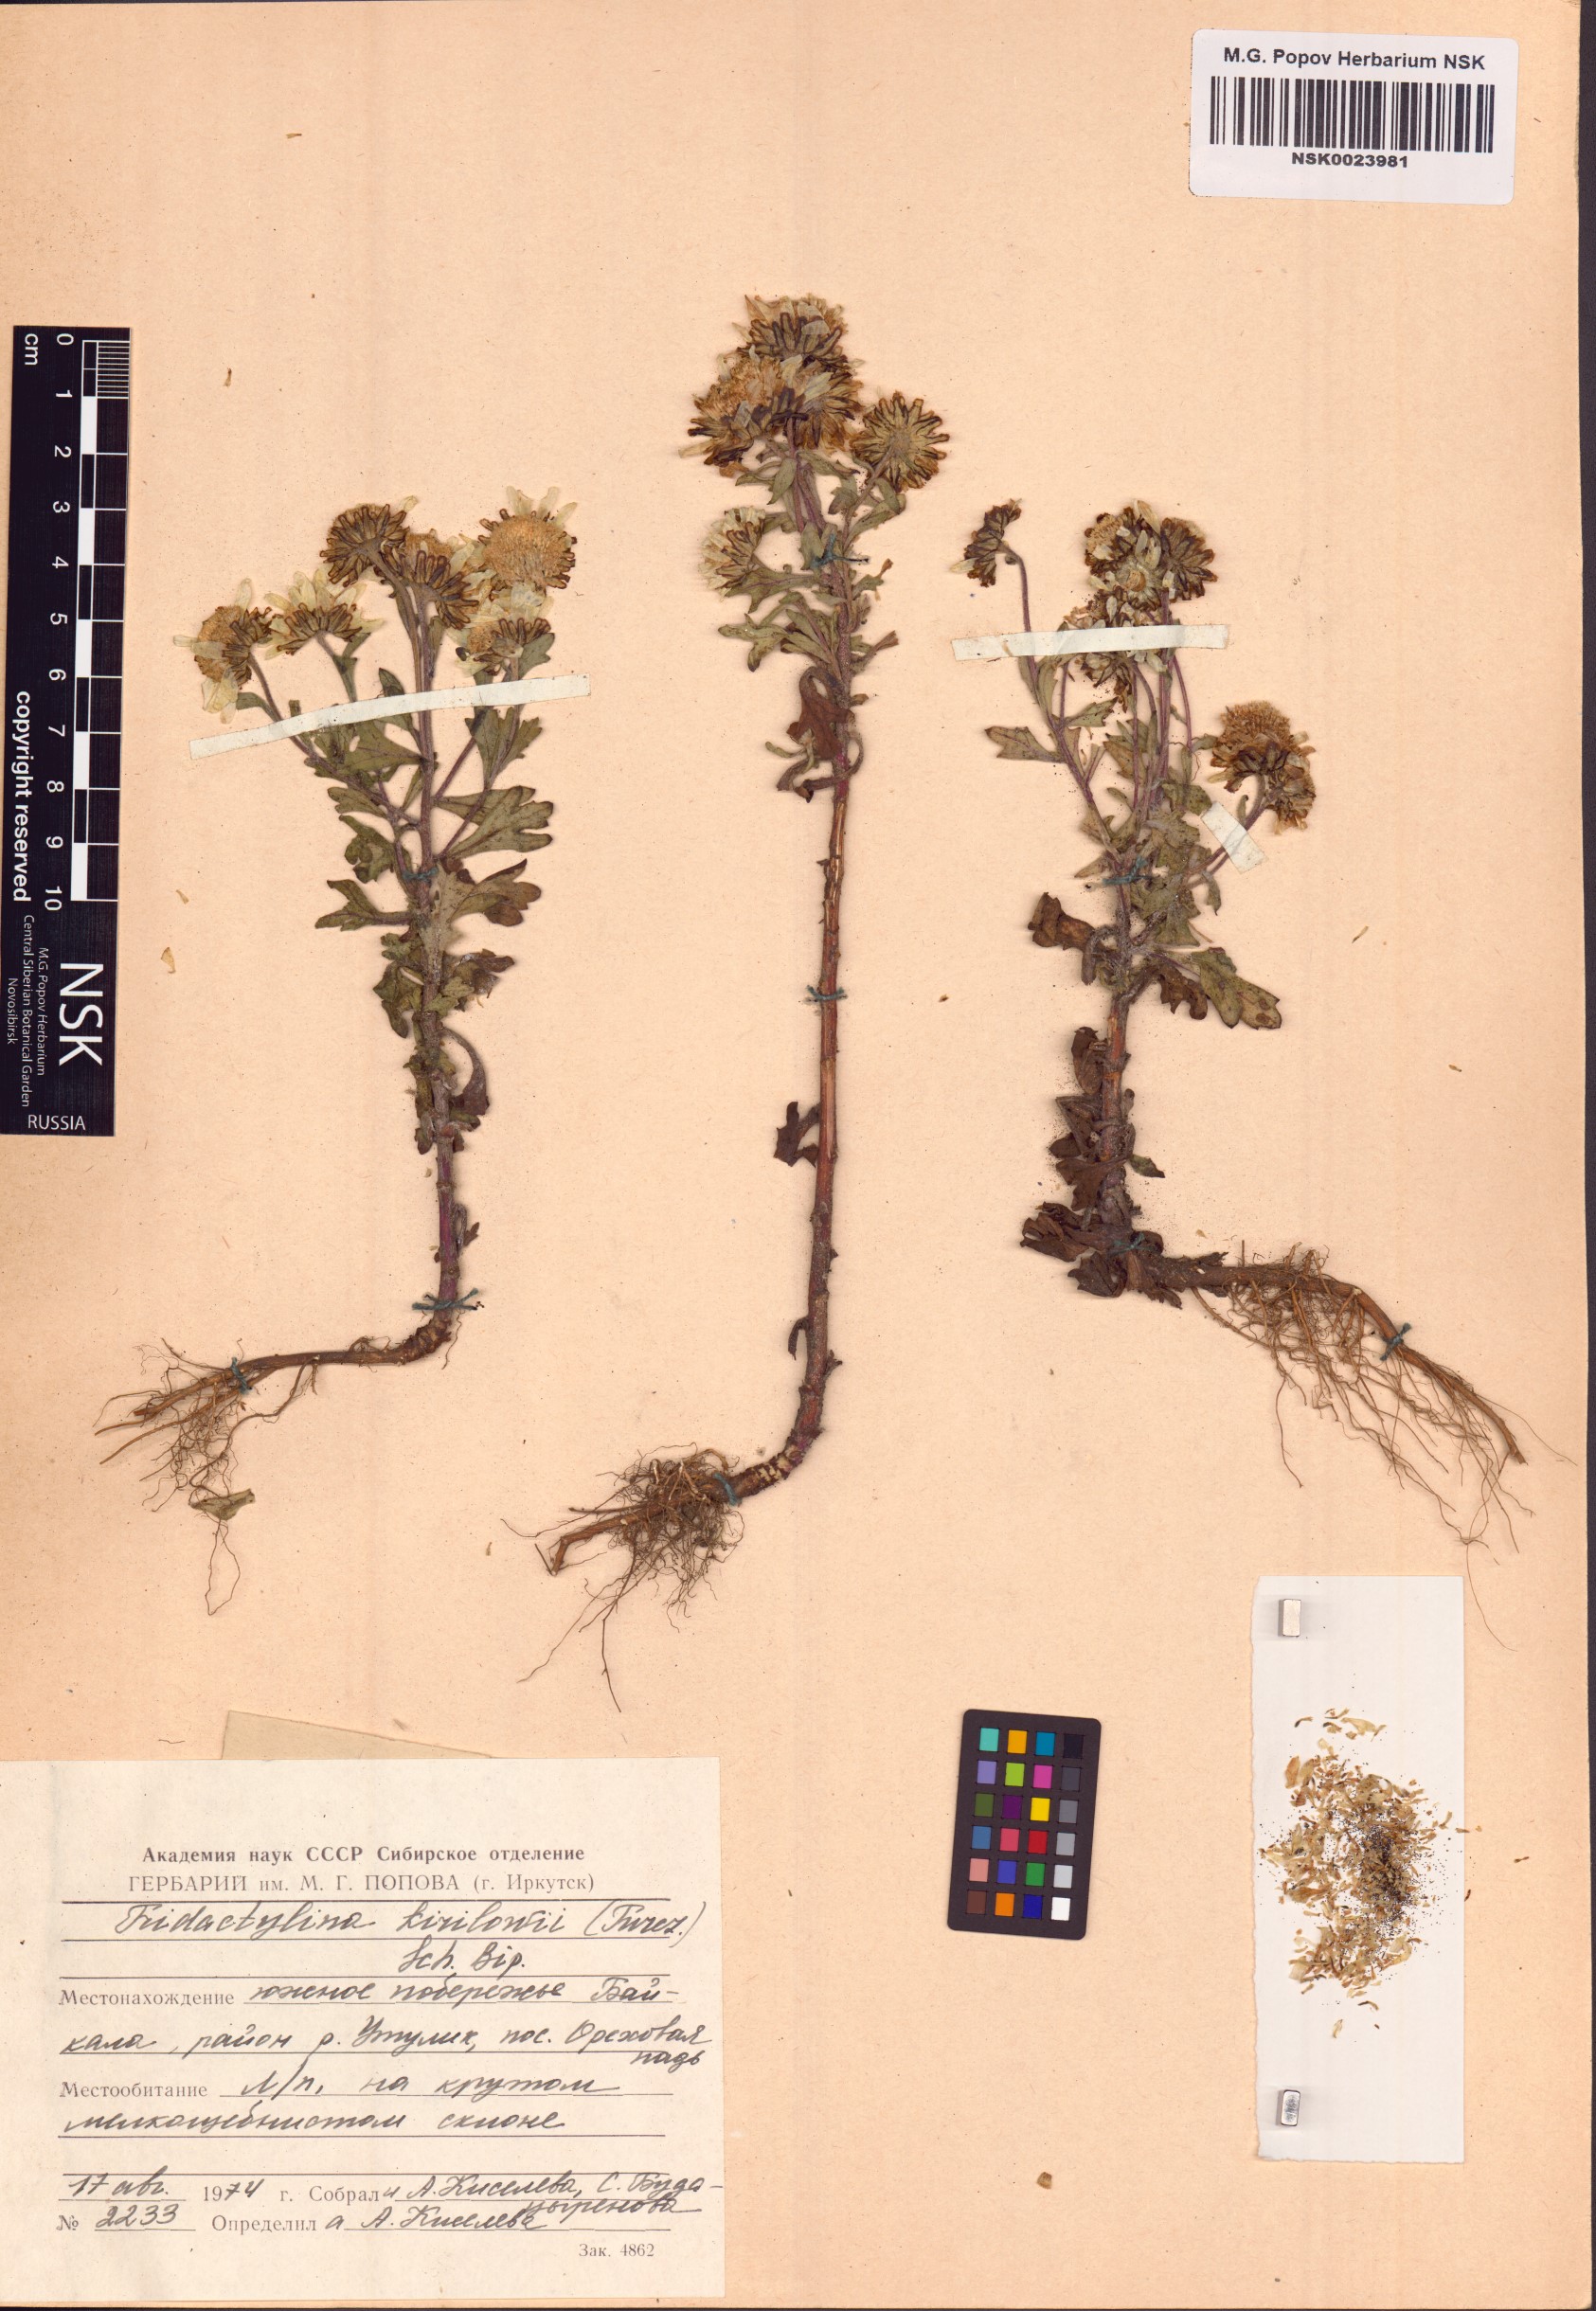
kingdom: Plantae
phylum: Tracheophyta
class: Magnoliopsida
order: Asterales
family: Asteraceae
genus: Tridactylina
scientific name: Tridactylina kirilowii
